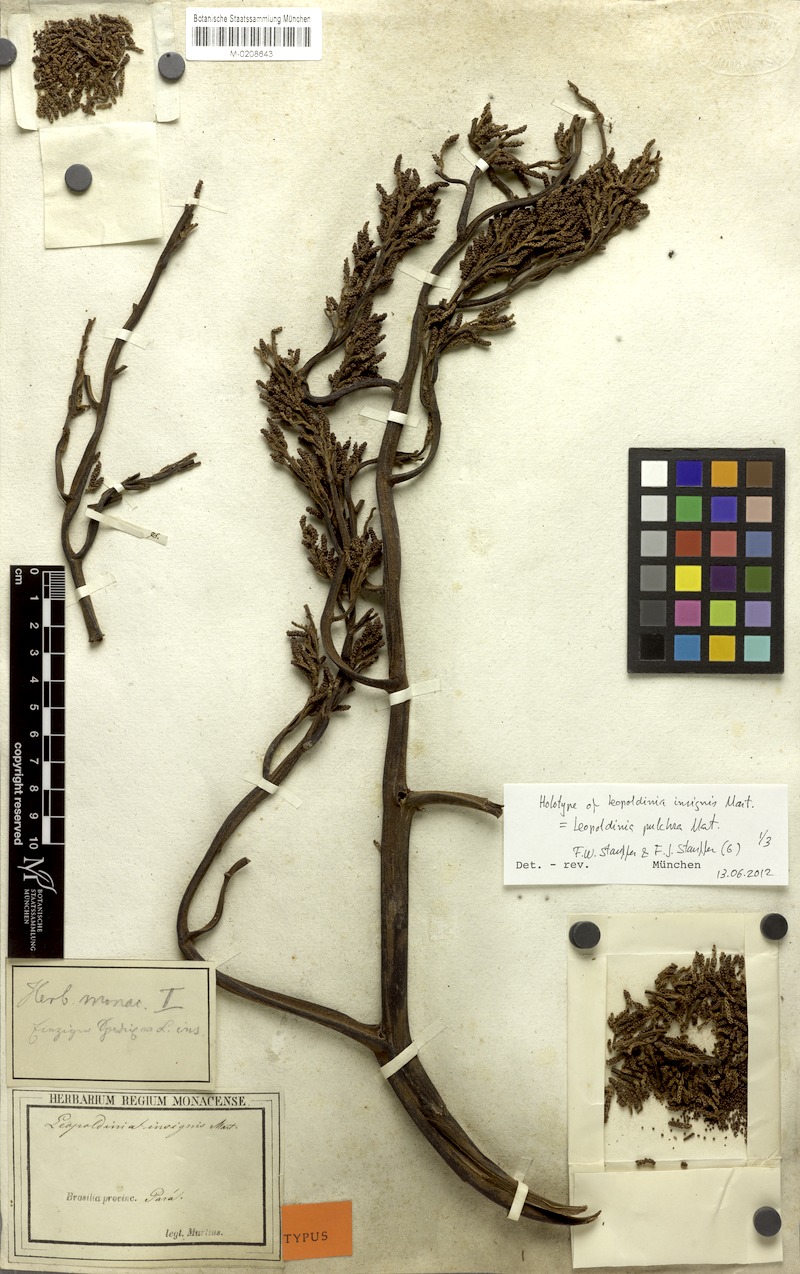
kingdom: Plantae
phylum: Tracheophyta
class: Liliopsida
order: Arecales
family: Arecaceae
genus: Leopoldinia
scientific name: Leopoldinia pulchra
